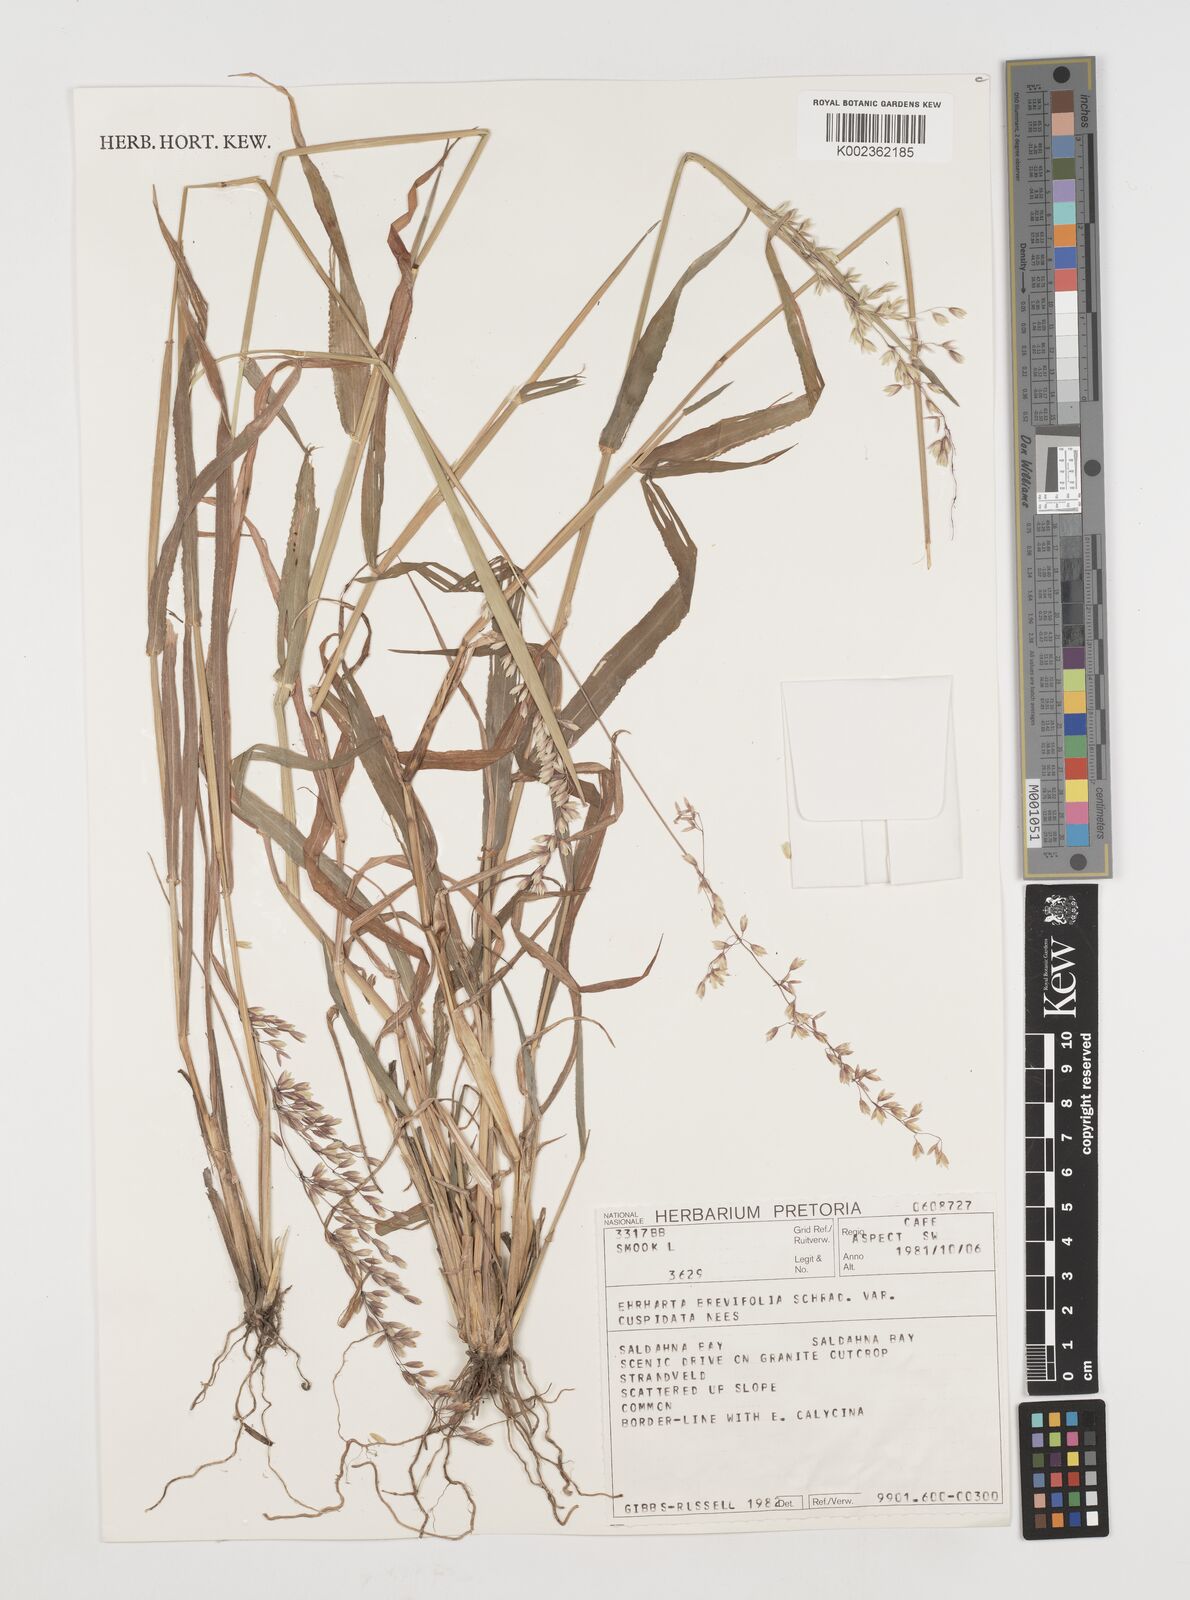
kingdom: Plantae
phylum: Tracheophyta
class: Liliopsida
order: Poales
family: Poaceae
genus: Ehrharta
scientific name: Ehrharta
